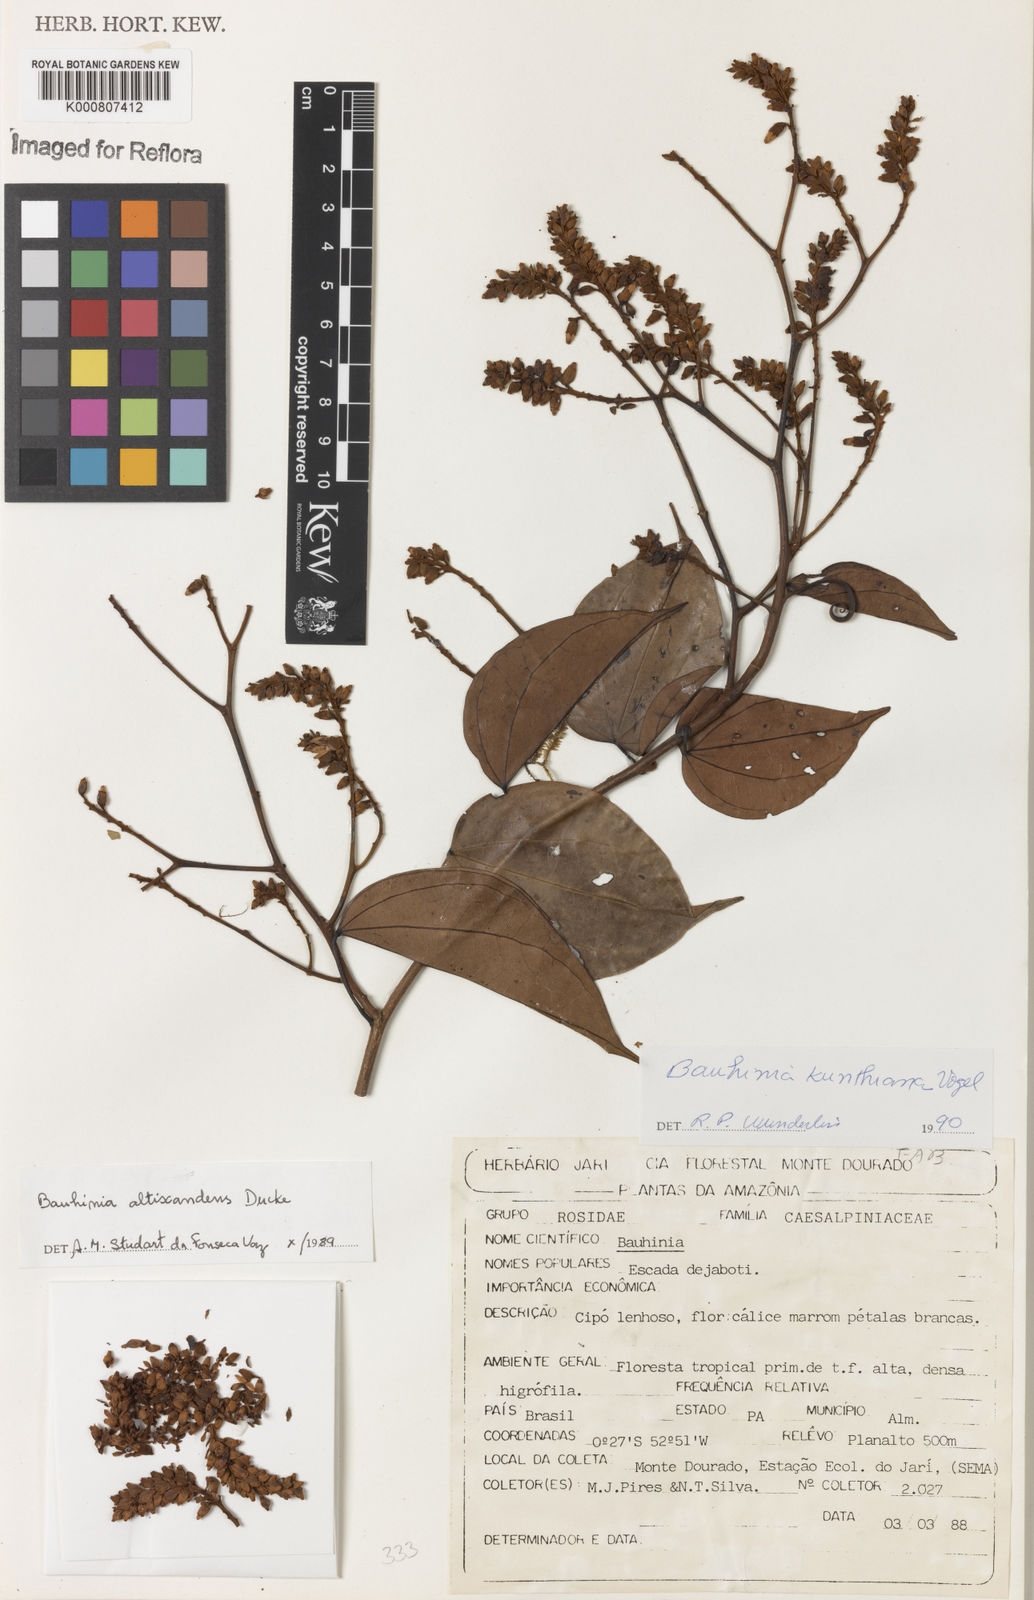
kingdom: Plantae
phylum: Tracheophyta
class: Magnoliopsida
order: Fabales
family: Fabaceae
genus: Schnella
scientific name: Schnella kunthiana
